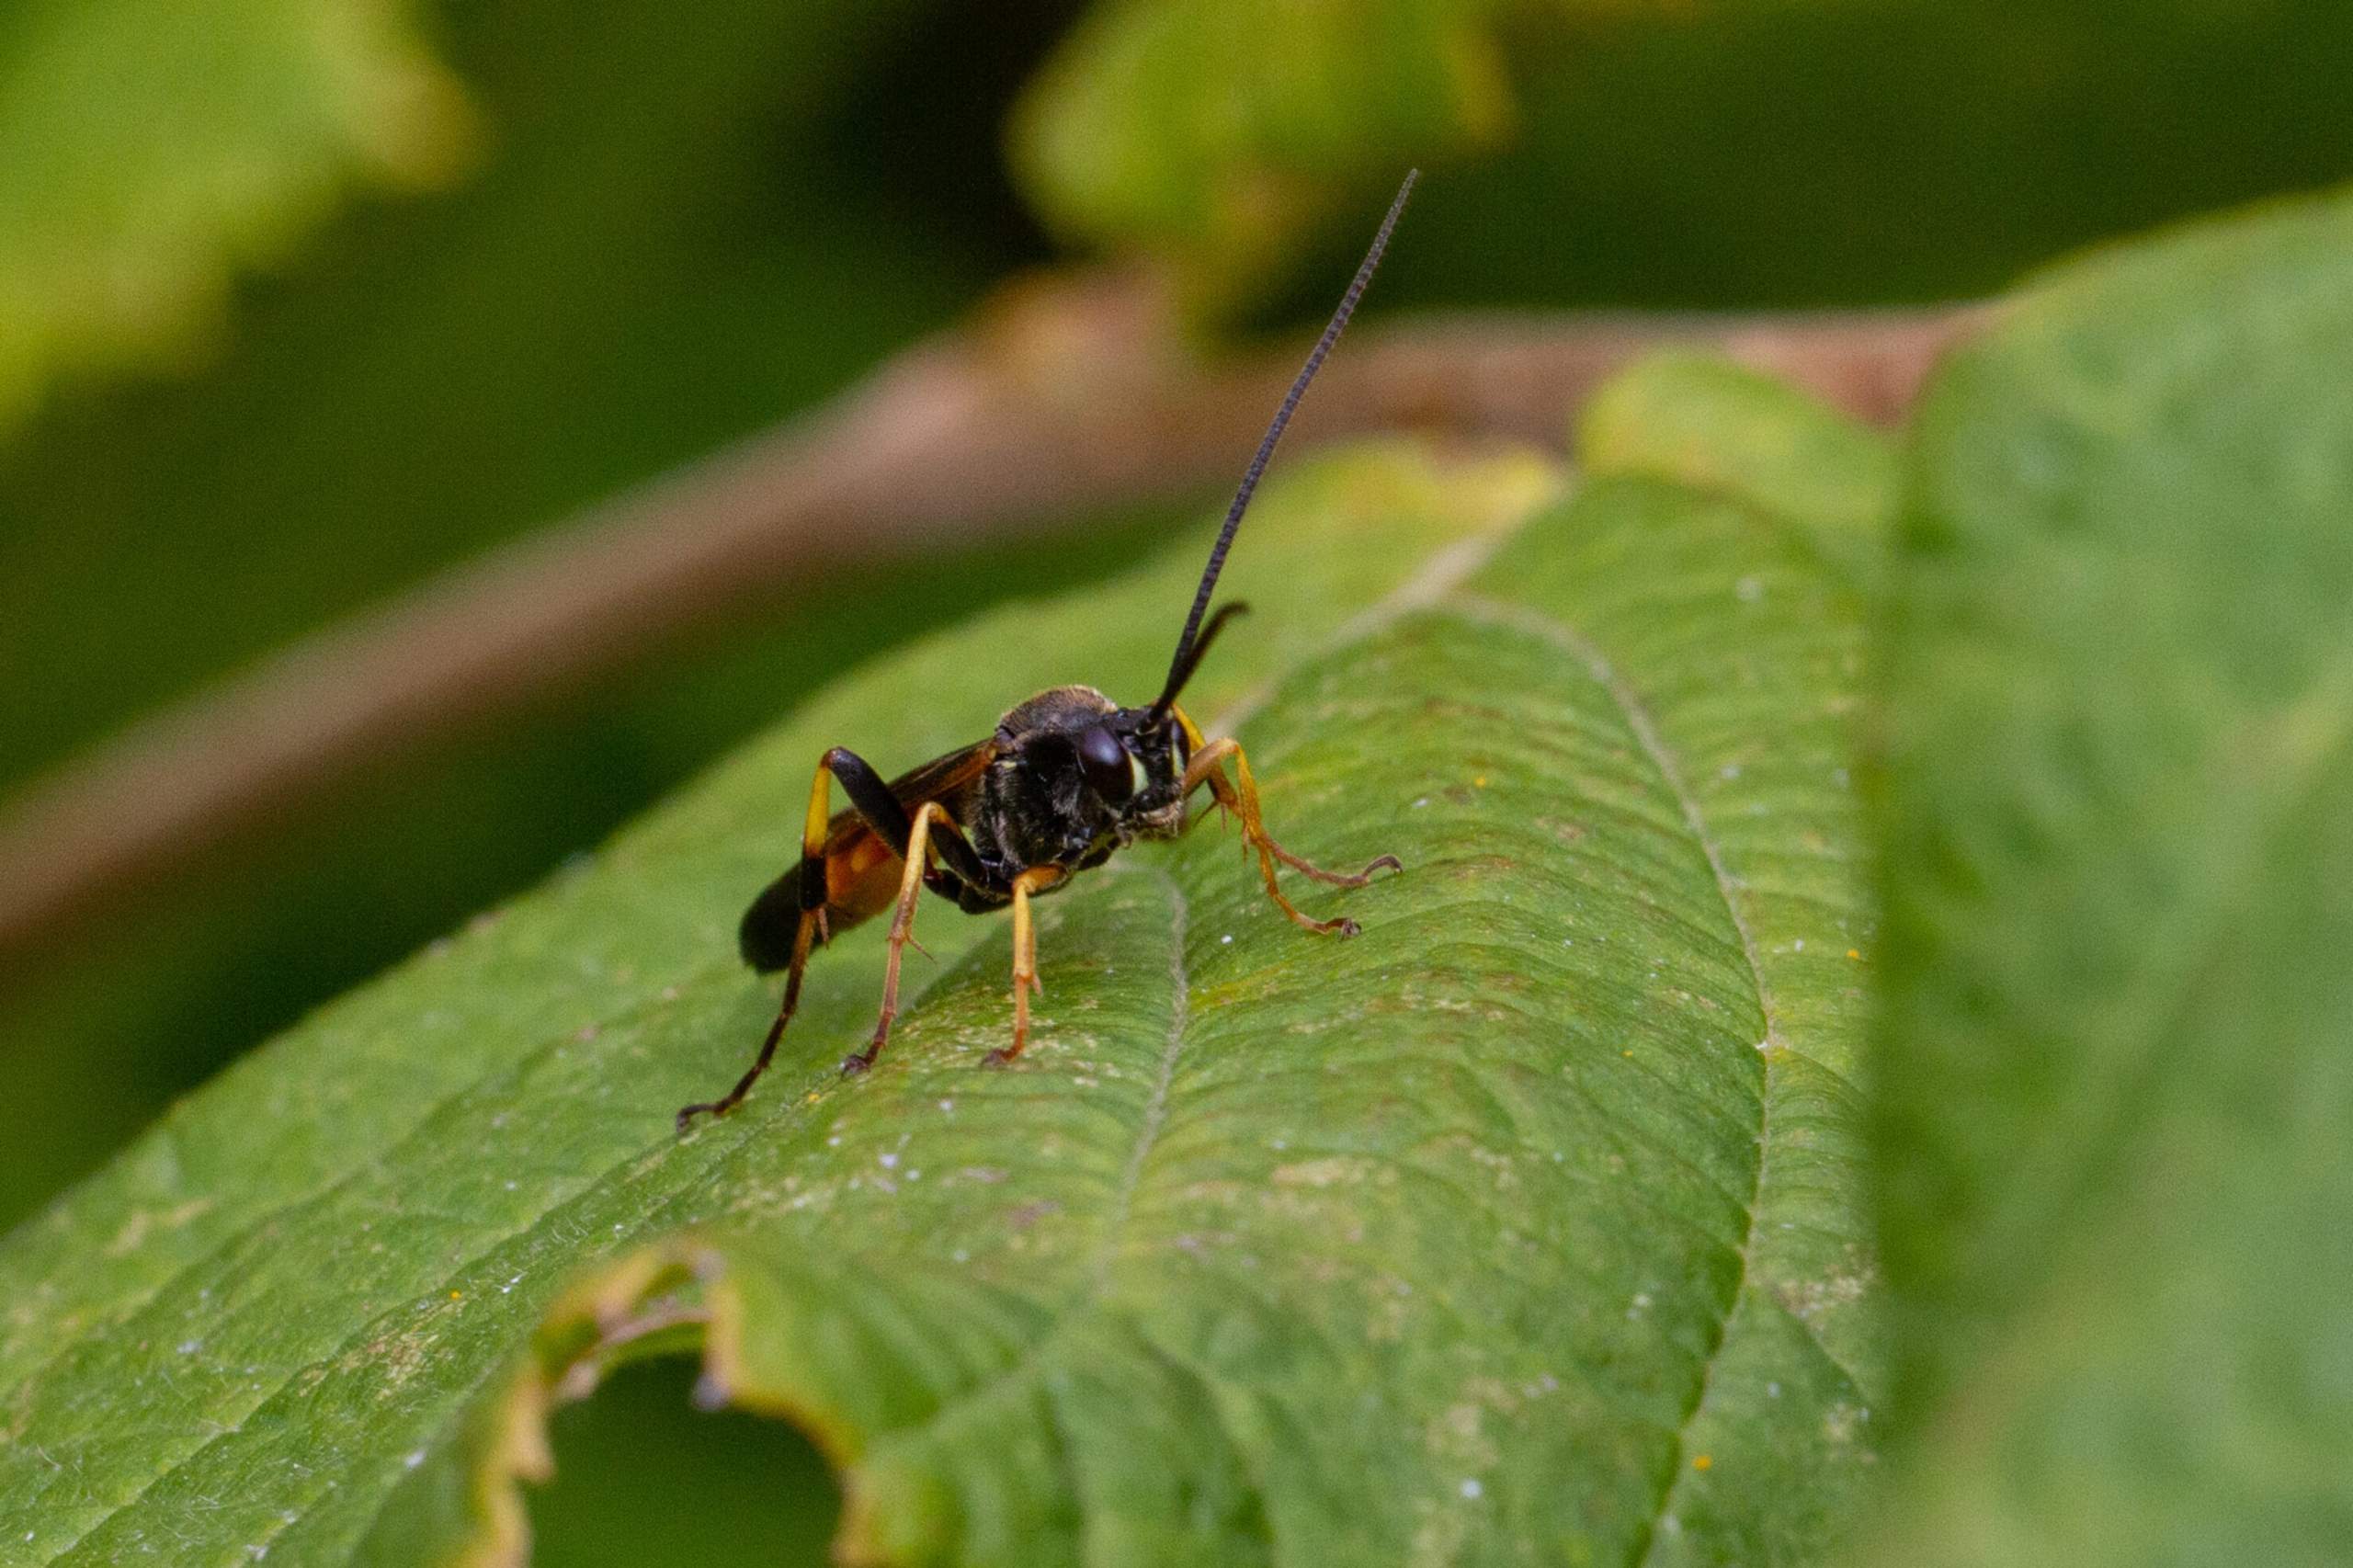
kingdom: Animalia
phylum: Arthropoda
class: Insecta
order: Hymenoptera
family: Ichneumonidae
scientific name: Ichneumonidae
